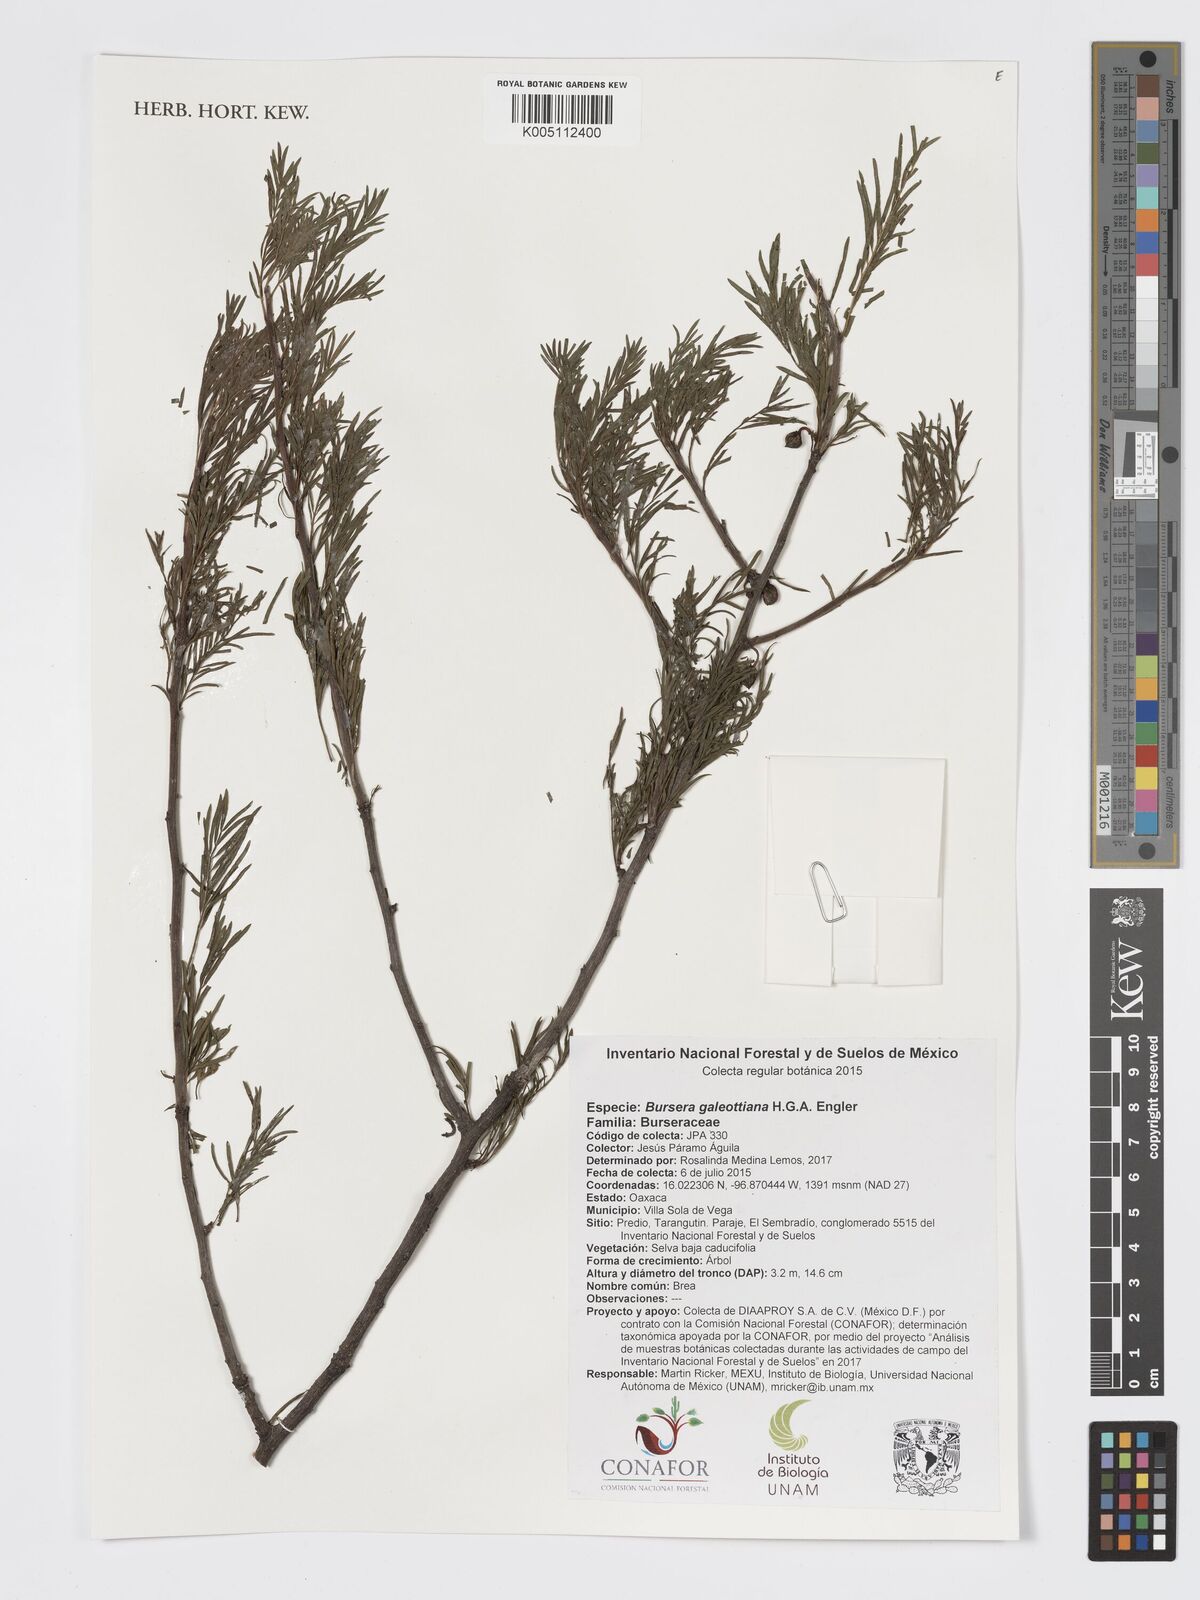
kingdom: Plantae
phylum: Tracheophyta
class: Magnoliopsida
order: Sapindales
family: Burseraceae
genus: Bursera
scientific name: Bursera galeottiana
